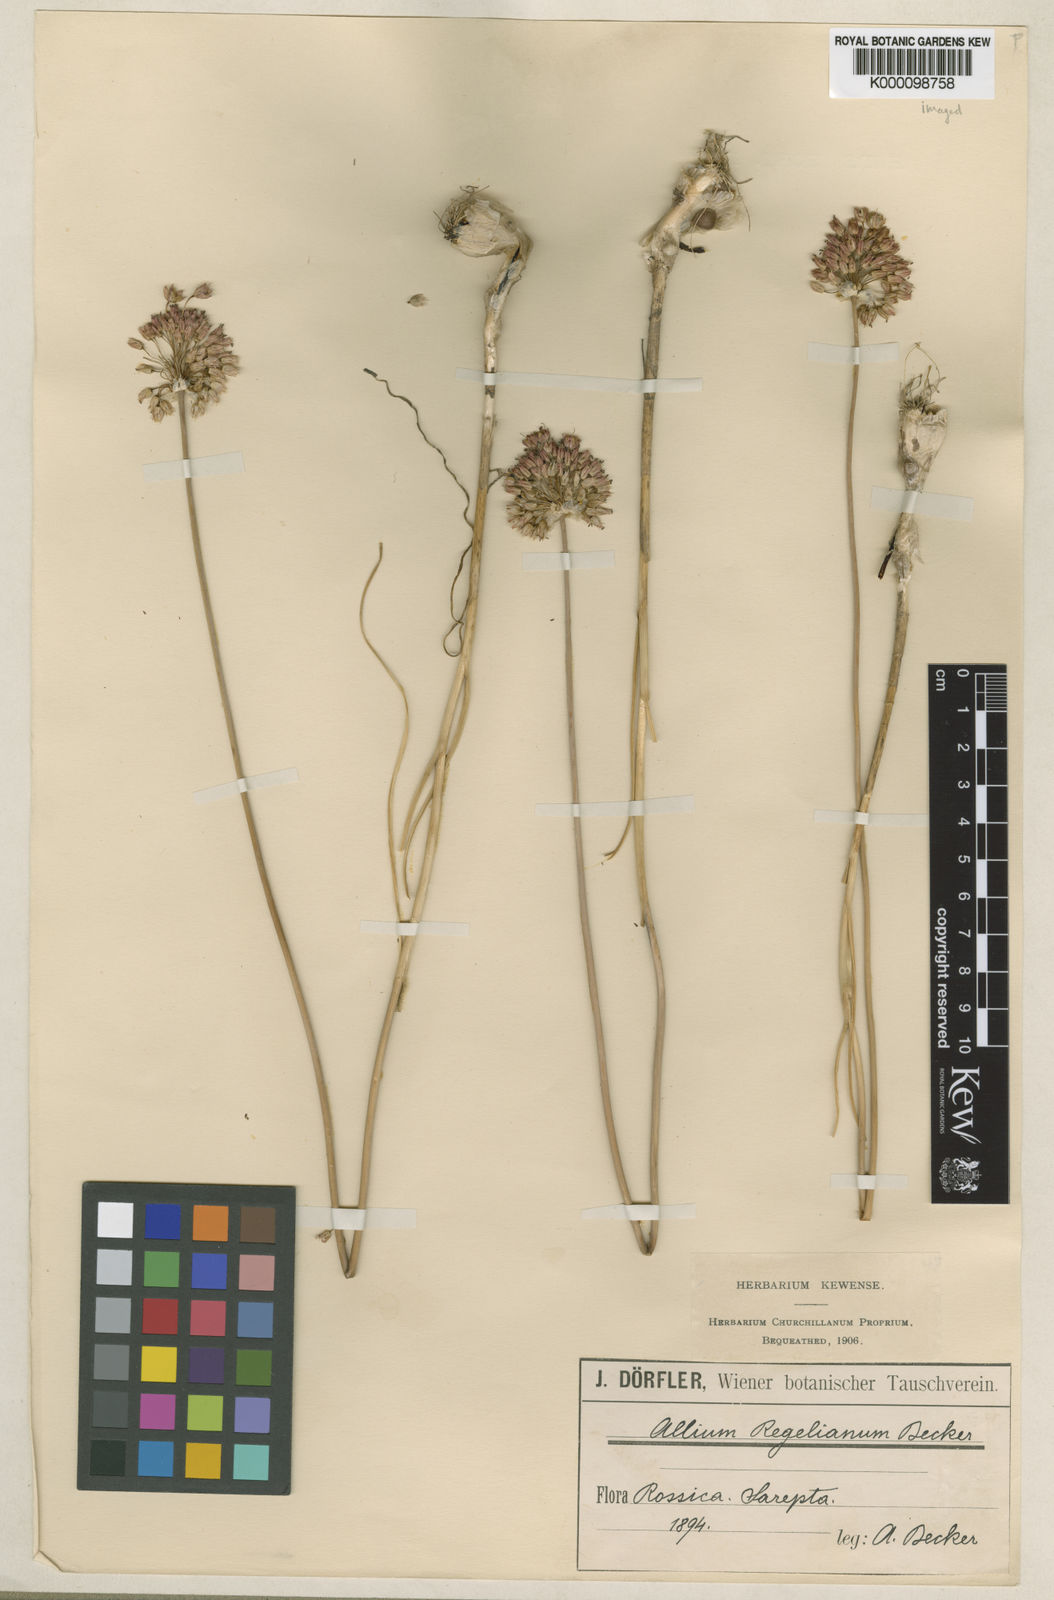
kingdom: Plantae
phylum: Tracheophyta
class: Liliopsida
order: Asparagales
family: Amaryllidaceae
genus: Allium
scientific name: Allium regelianum
